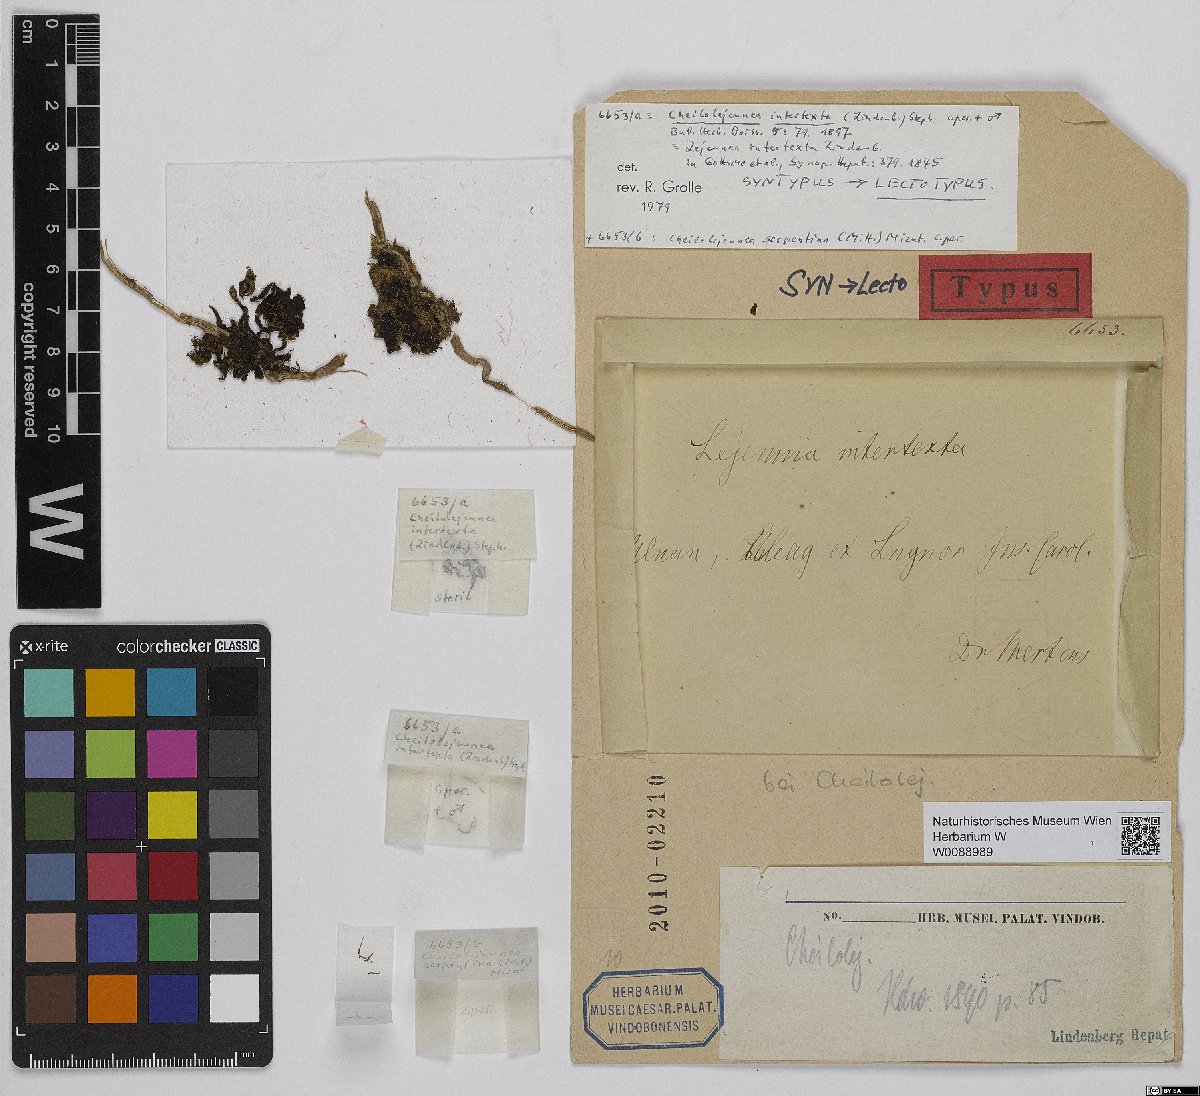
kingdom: Plantae
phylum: Marchantiophyta
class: Jungermanniopsida
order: Porellales
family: Lejeuneaceae
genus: Cheilolejeunea
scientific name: Cheilolejeunea intertexta
